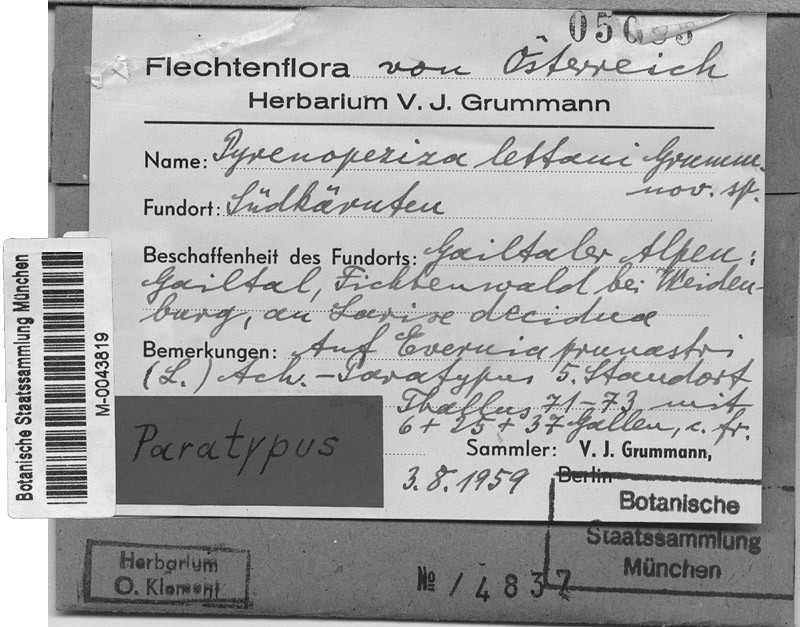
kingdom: Fungi
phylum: Ascomycota
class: Lecanoromycetes
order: Lecanorales
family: Parmeliaceae
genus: Evernia
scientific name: Evernia prunastri
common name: Oak moss
